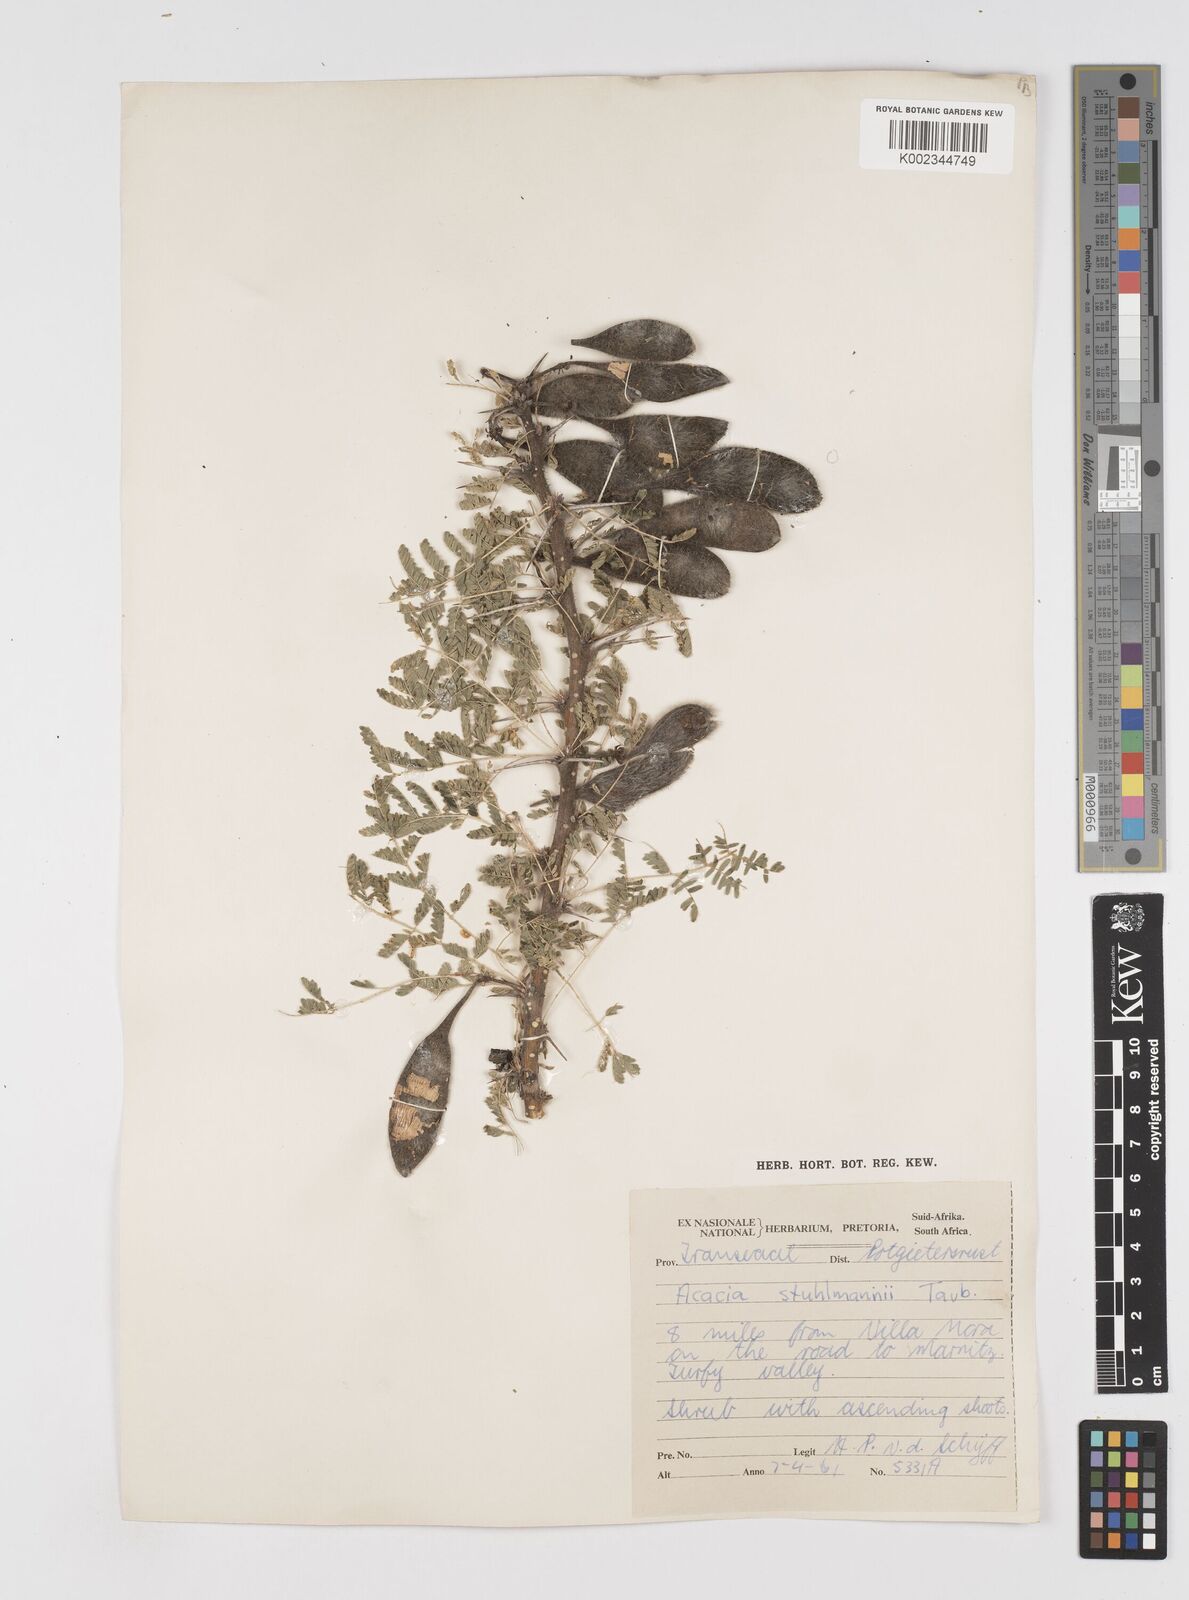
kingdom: Plantae
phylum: Tracheophyta
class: Magnoliopsida
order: Fabales
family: Fabaceae
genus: Vachellia
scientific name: Vachellia stuhlmannii
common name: Vlei thorn
